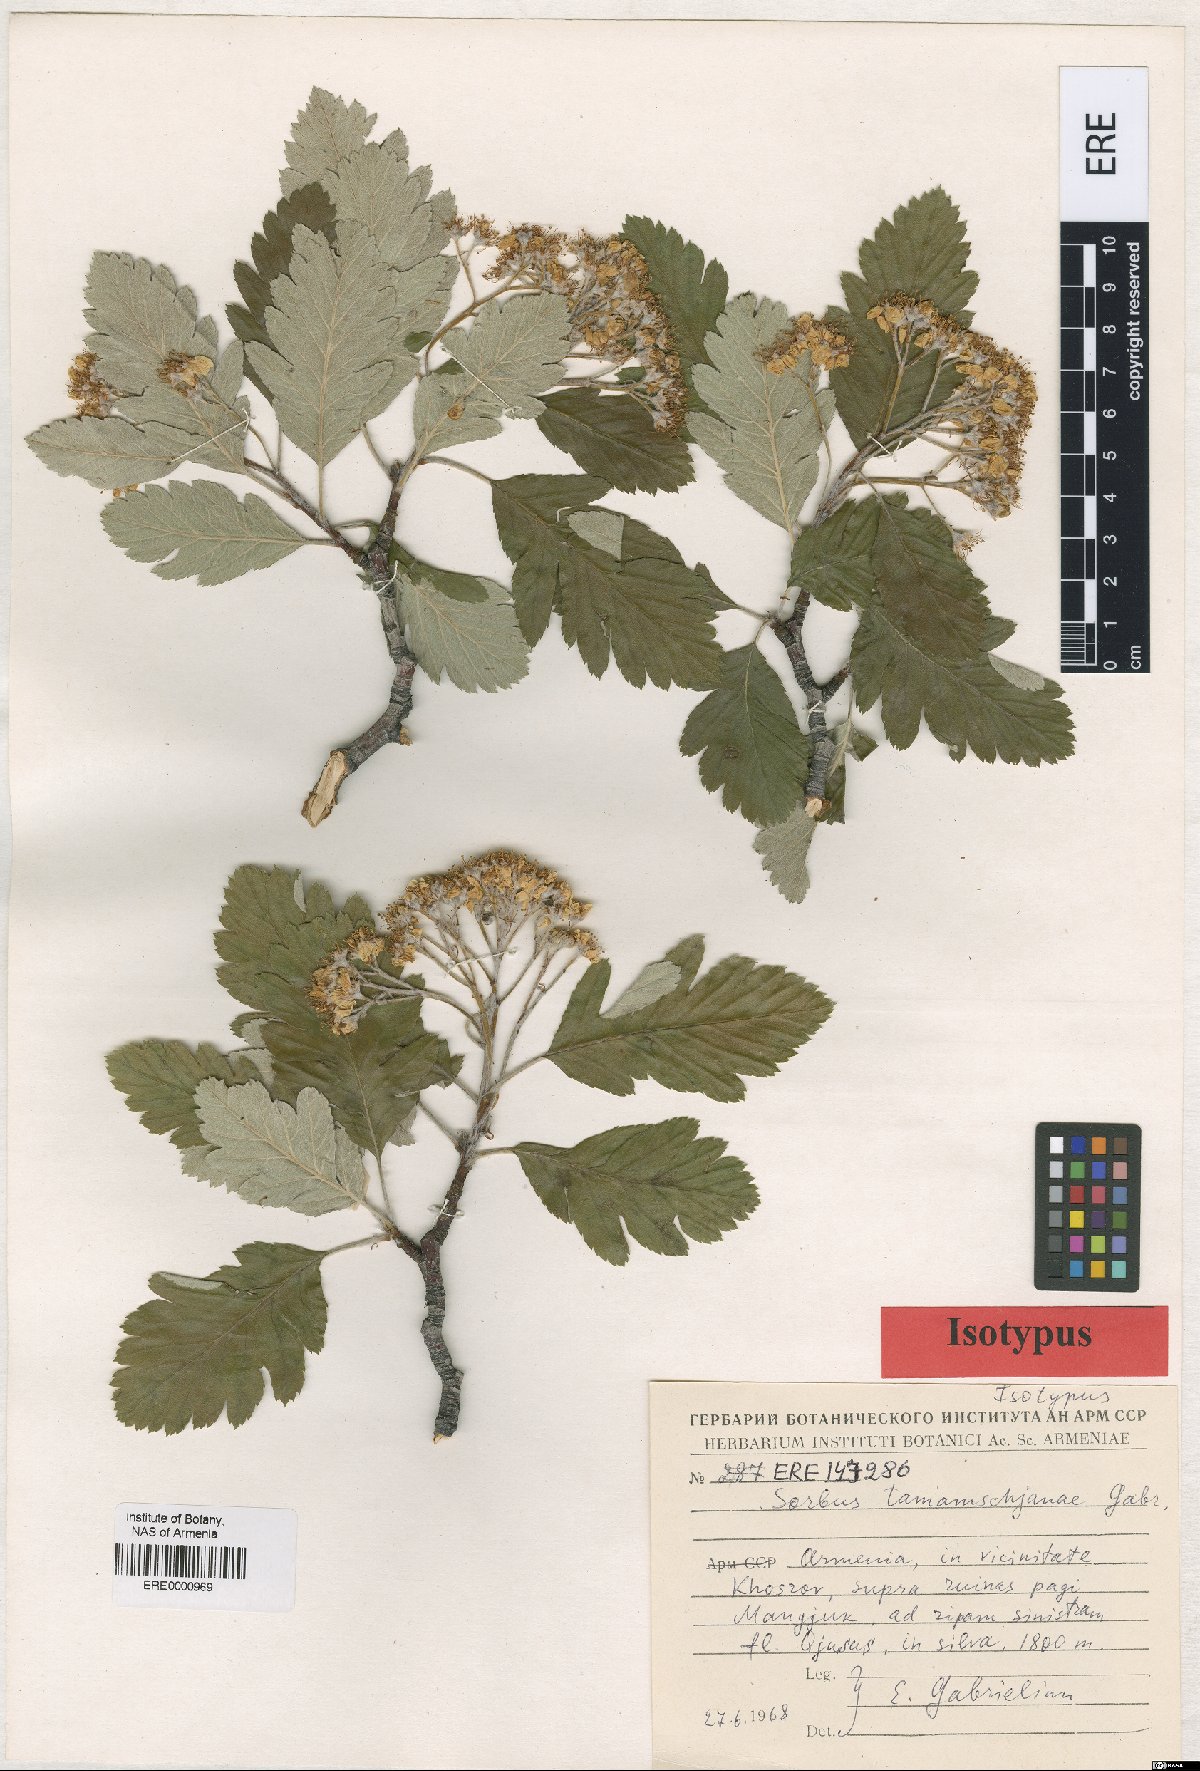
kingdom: Plantae
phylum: Tracheophyta
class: Magnoliopsida
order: Rosales
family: Rosaceae
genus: Hedlundia
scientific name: Hedlundia tamamschjanae
